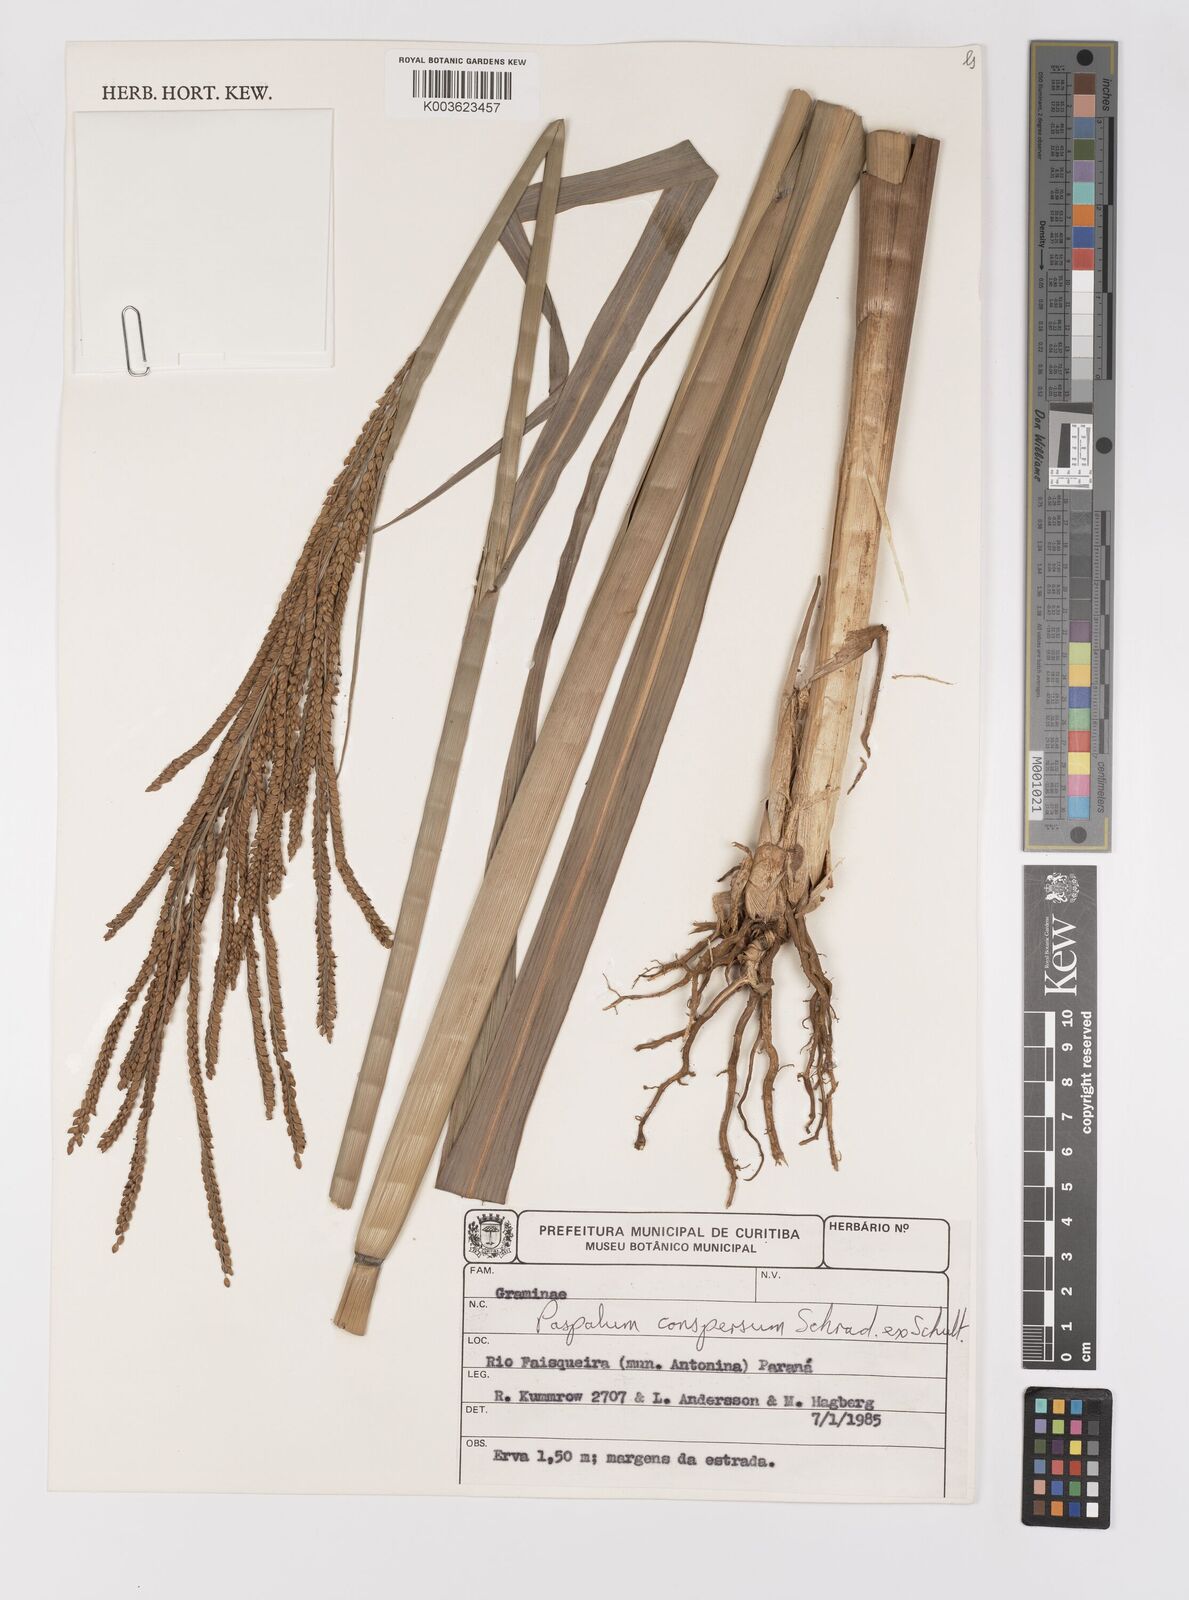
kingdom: Plantae
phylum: Tracheophyta
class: Liliopsida
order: Poales
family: Poaceae
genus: Paspalum
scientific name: Paspalum conspersum
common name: Scattered paspalum
